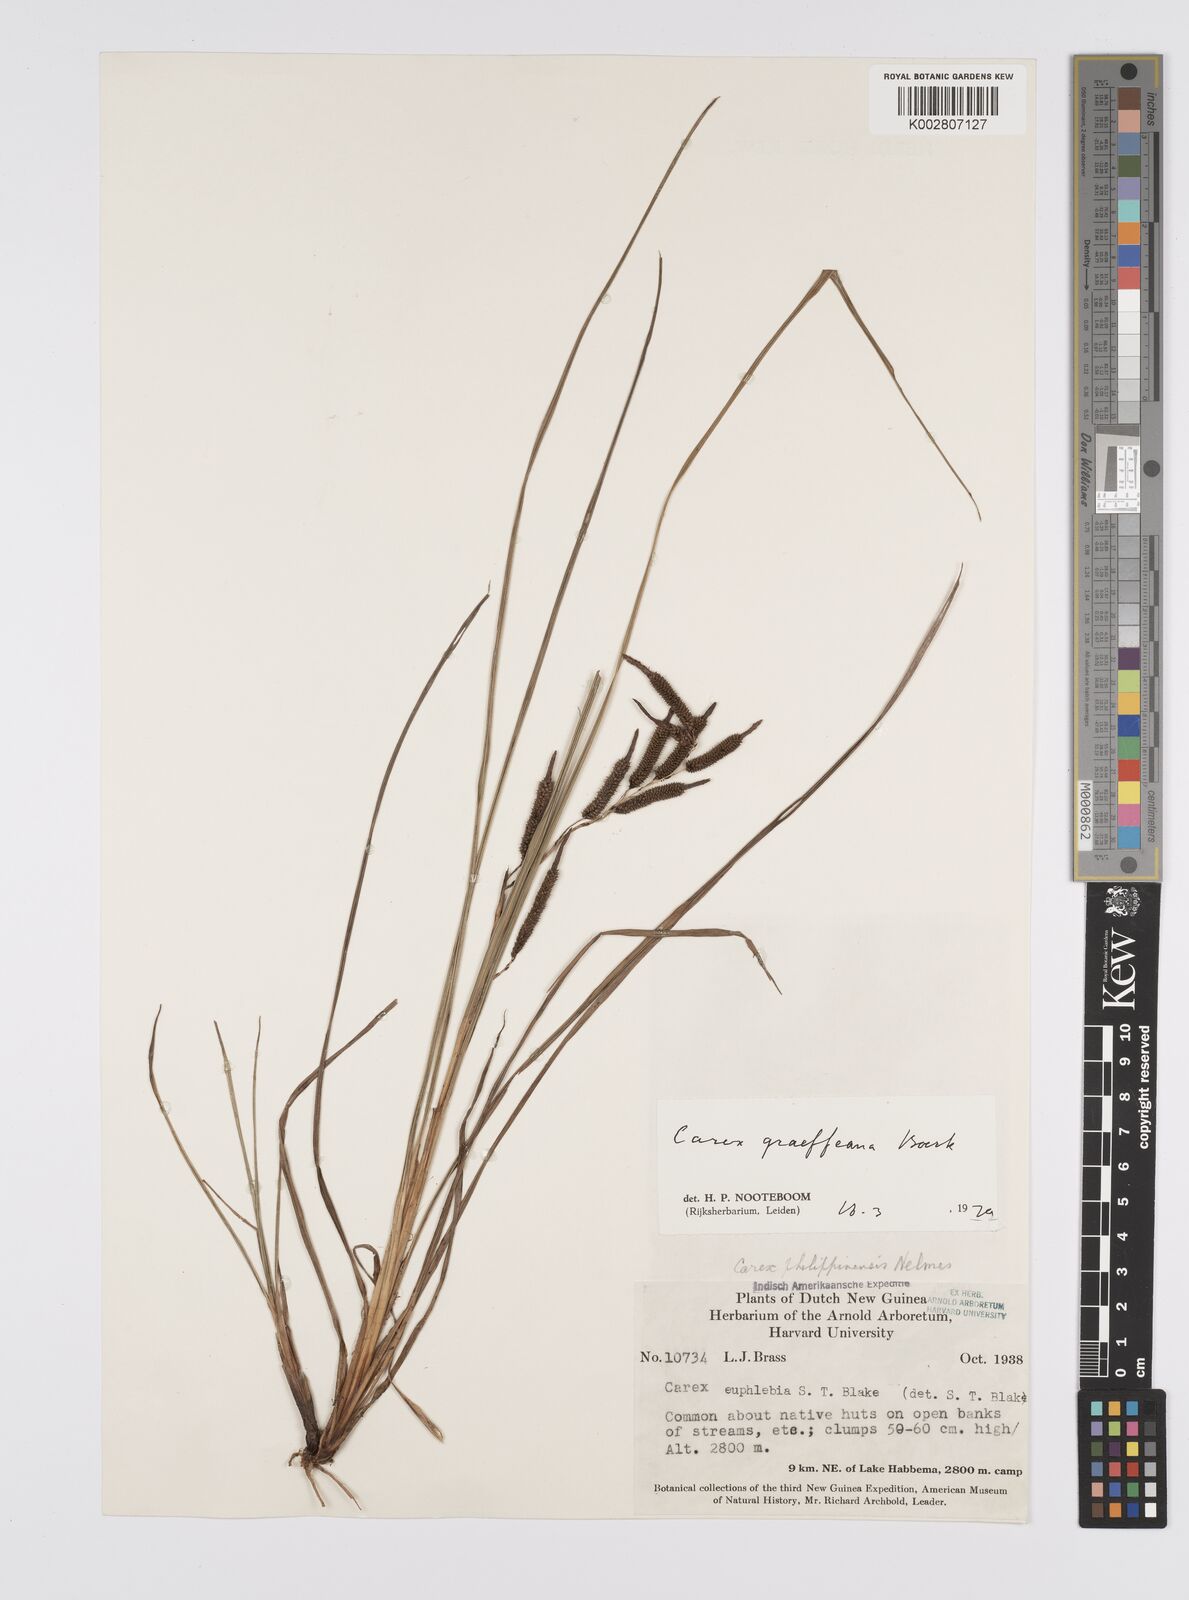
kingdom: Plantae
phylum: Tracheophyta
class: Liliopsida
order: Poales
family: Cyperaceae
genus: Carex
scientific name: Carex graeffeana
